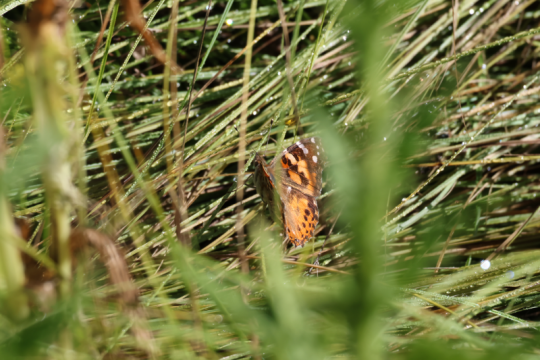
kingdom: Animalia
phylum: Arthropoda
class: Insecta
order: Lepidoptera
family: Nymphalidae
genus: Vanessa
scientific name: Vanessa cardui
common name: Painted Lady
